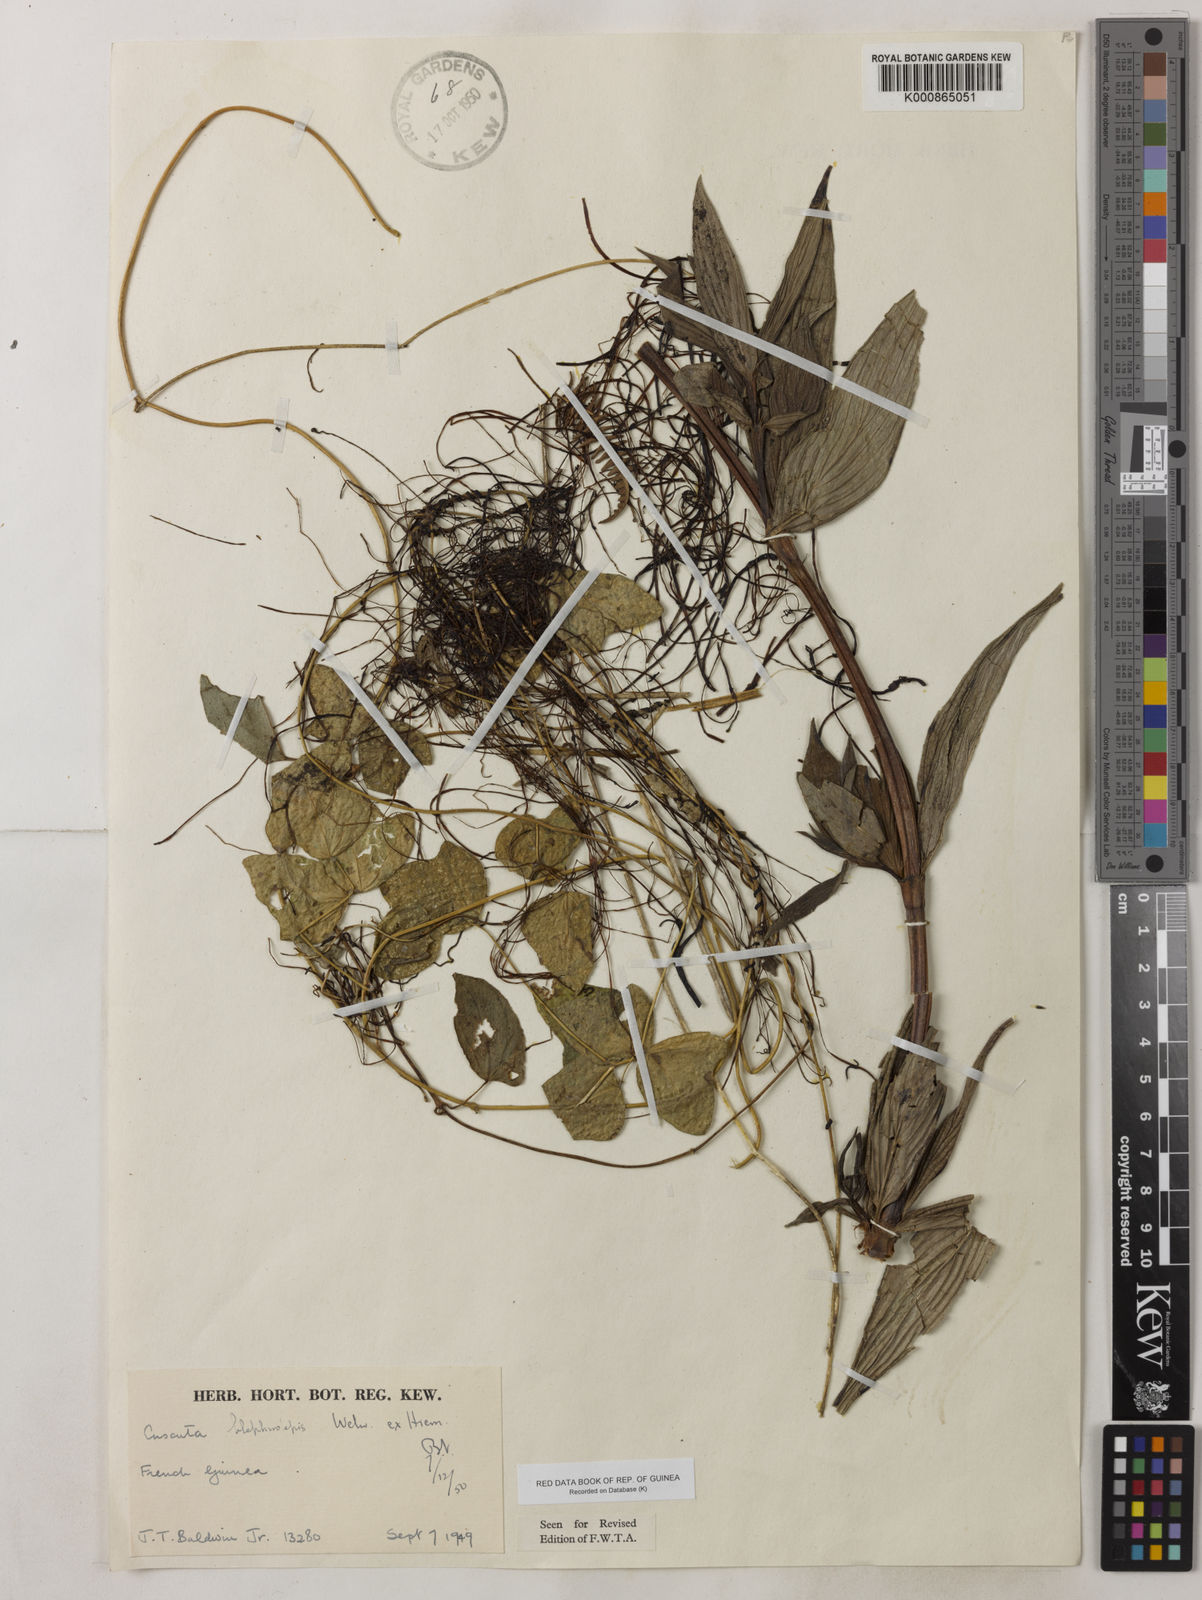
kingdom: Plantae
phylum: Tracheophyta
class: Magnoliopsida
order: Solanales
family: Convolvulaceae
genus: Cuscuta
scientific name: Cuscuta blepharolepis
